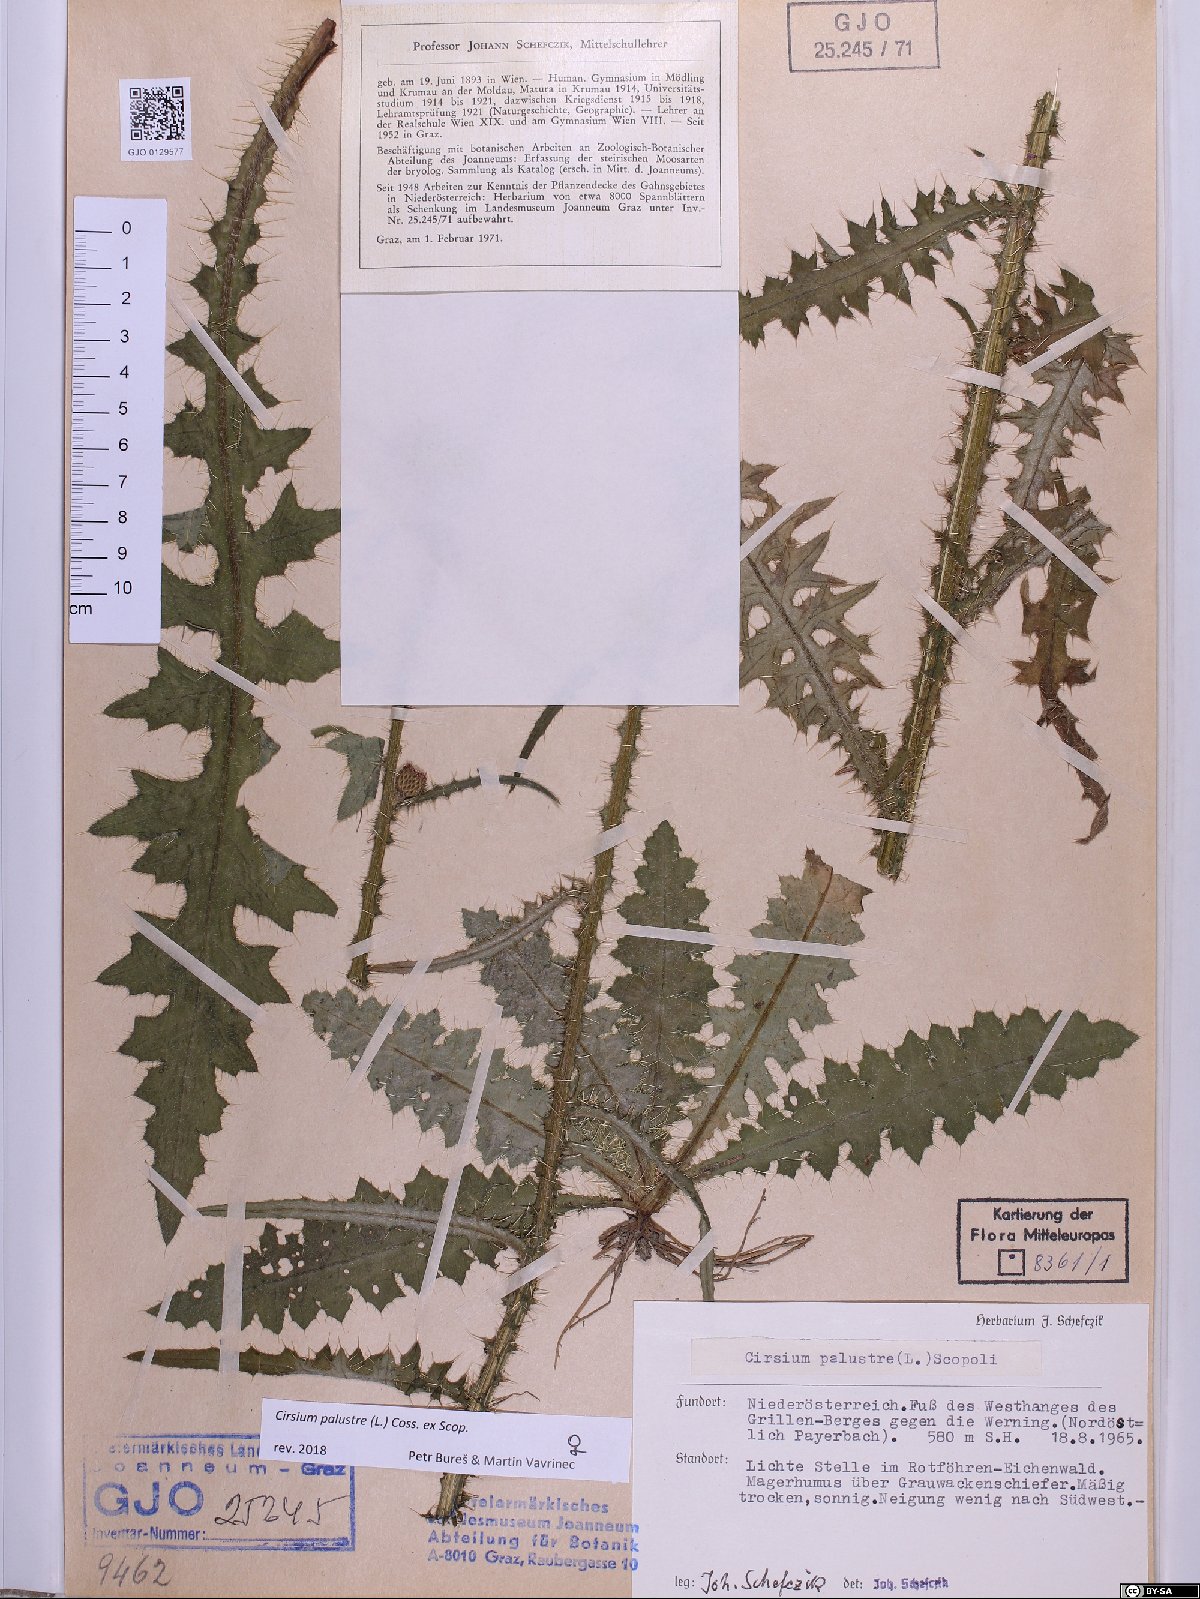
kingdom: Plantae
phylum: Tracheophyta
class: Magnoliopsida
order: Asterales
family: Asteraceae
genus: Cirsium
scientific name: Cirsium palustre
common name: Marsh thistle
